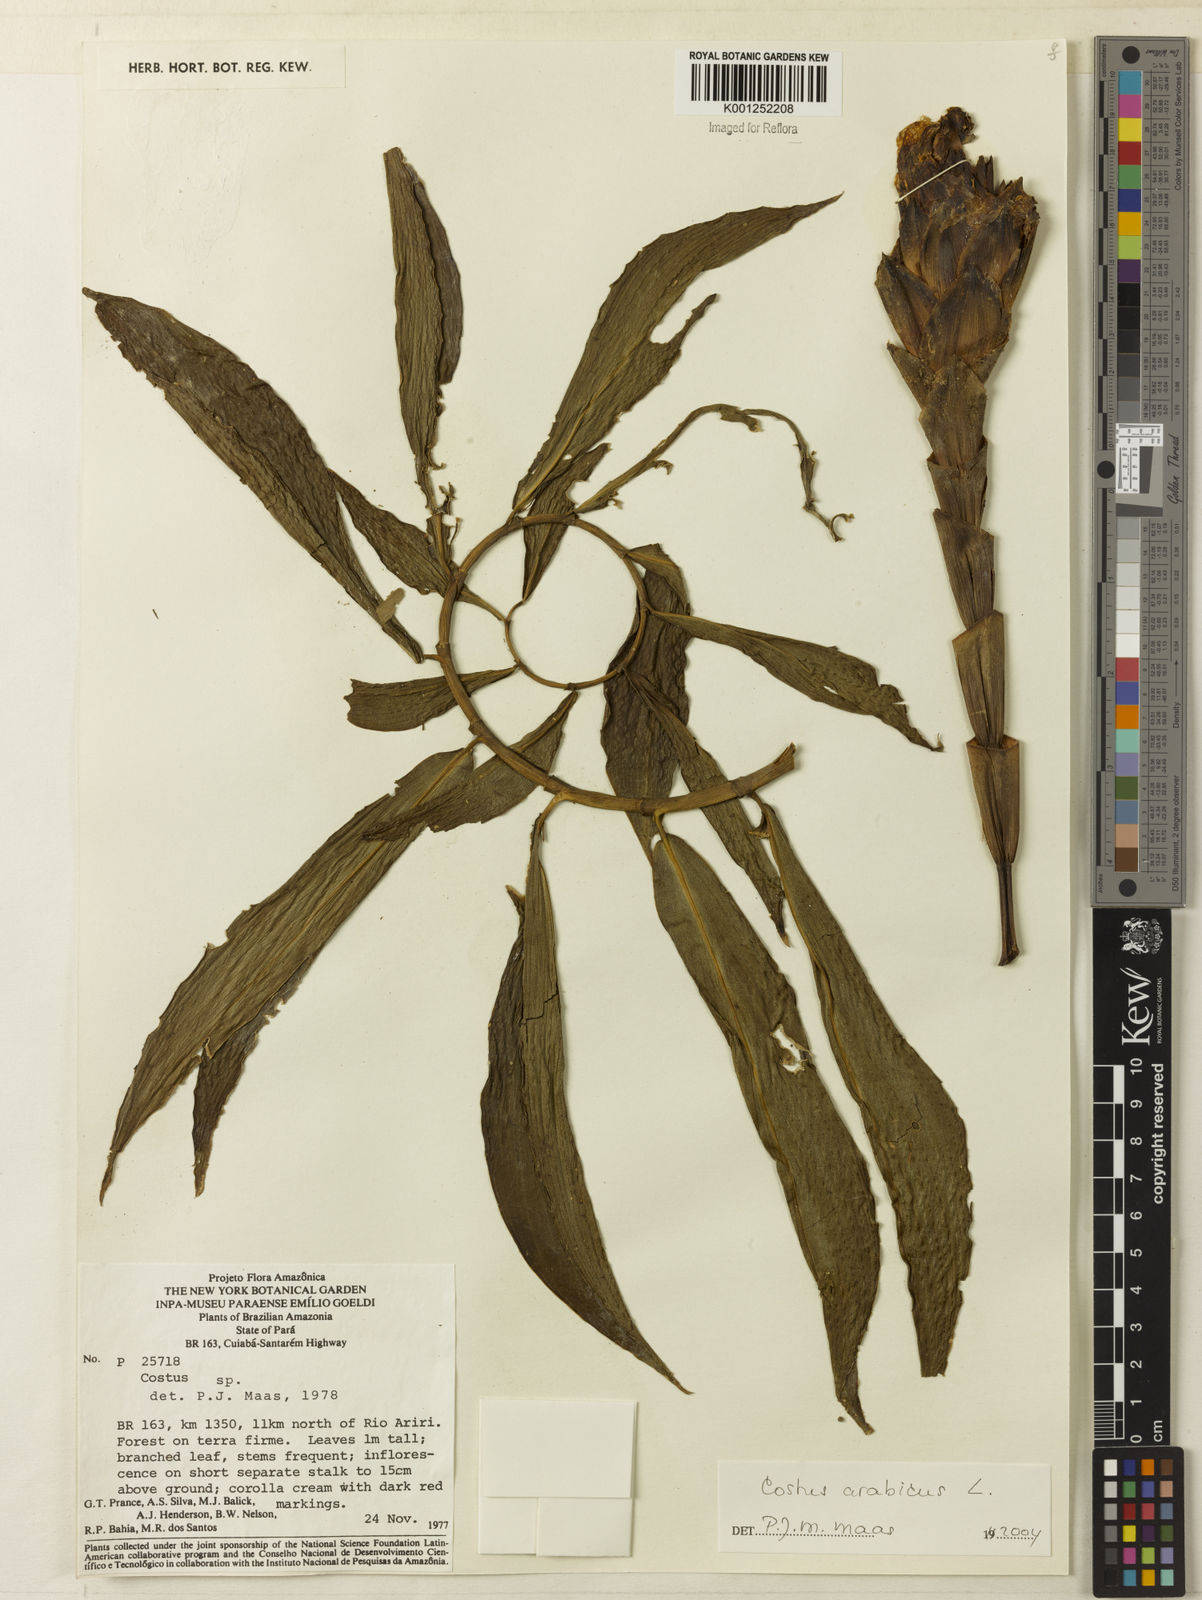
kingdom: Plantae
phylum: Tracheophyta
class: Liliopsida
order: Zingiberales
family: Costaceae
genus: Costus
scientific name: Costus arabicus
